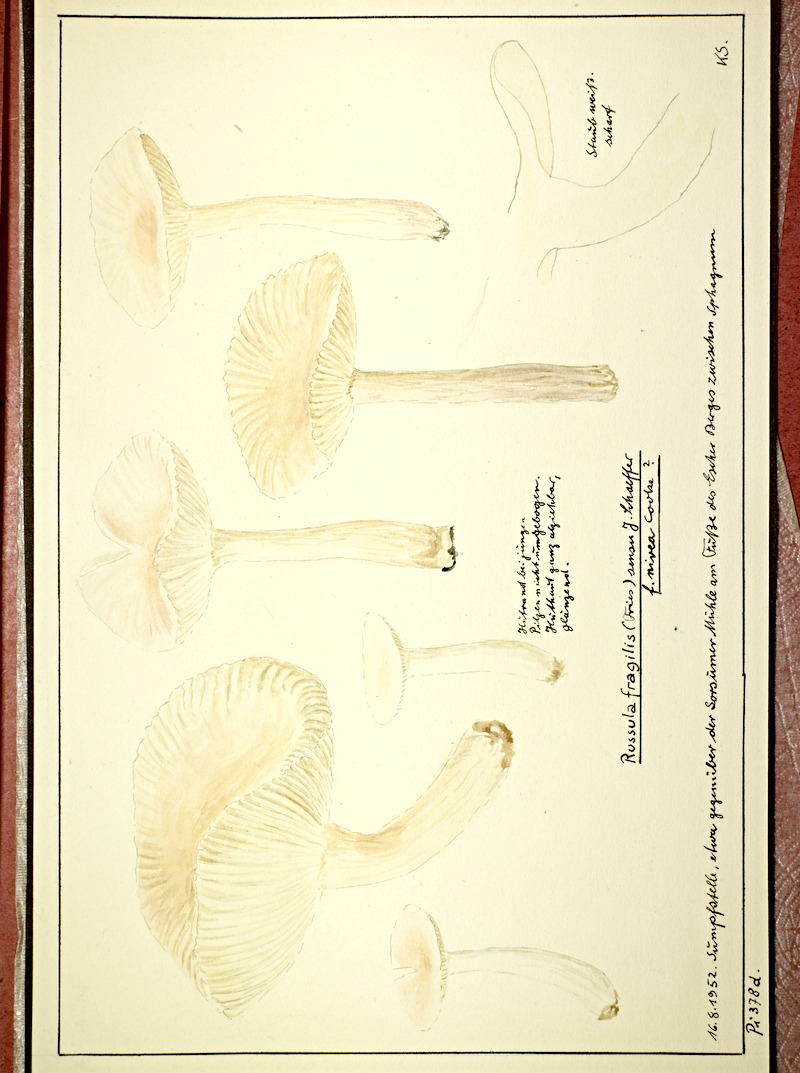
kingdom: Fungi
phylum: Basidiomycota
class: Agaricomycetes
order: Russulales
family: Russulaceae
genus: Russula
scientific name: Russula raoultii
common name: Pallid brittlegill
